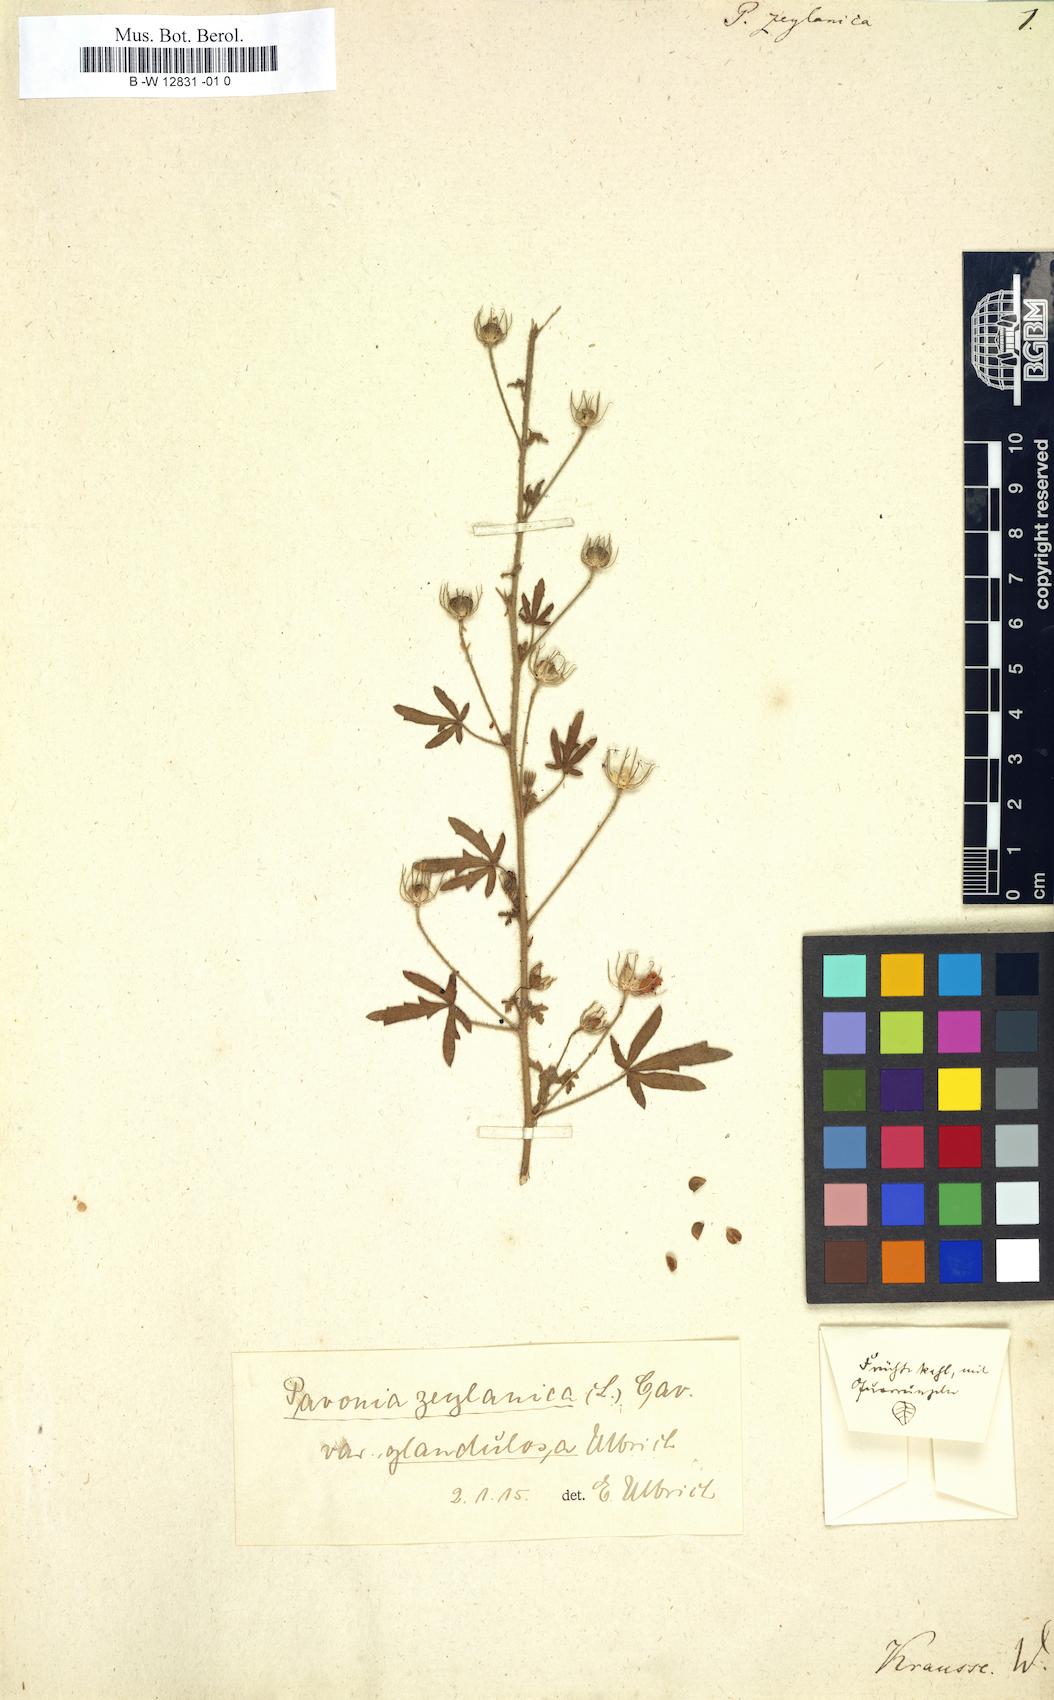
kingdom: Plantae
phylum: Tracheophyta
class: Magnoliopsida
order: Malvales
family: Malvaceae
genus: Pavonia
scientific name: Pavonia zeylanica
